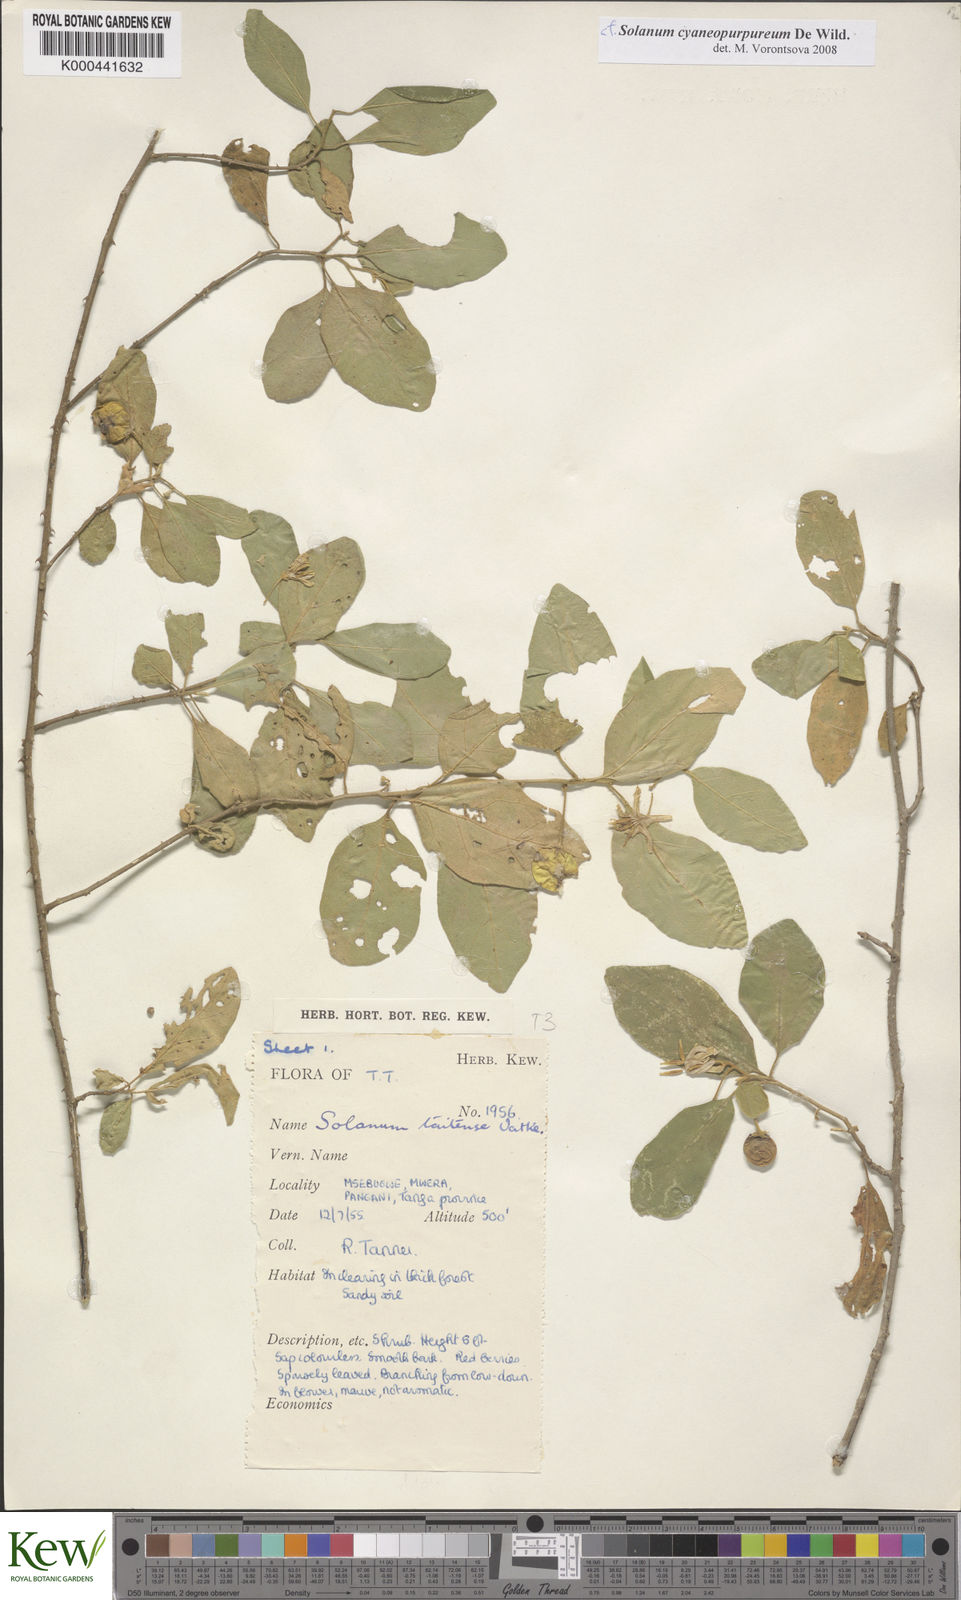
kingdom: Plantae
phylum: Tracheophyta
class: Magnoliopsida
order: Solanales
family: Solanaceae
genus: Solanum
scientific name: Solanum zanzibarense
